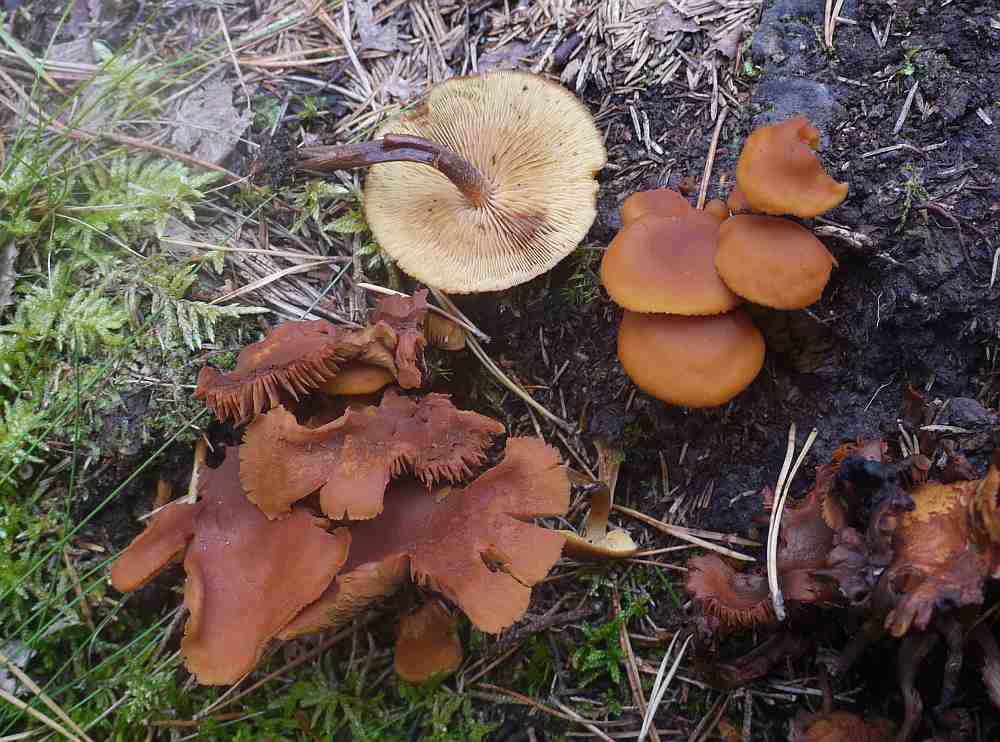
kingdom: Fungi
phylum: Basidiomycota
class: Agaricomycetes
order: Agaricales
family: Hymenogastraceae
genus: Gymnopilus
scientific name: Gymnopilus picreus
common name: puklet flammehat
